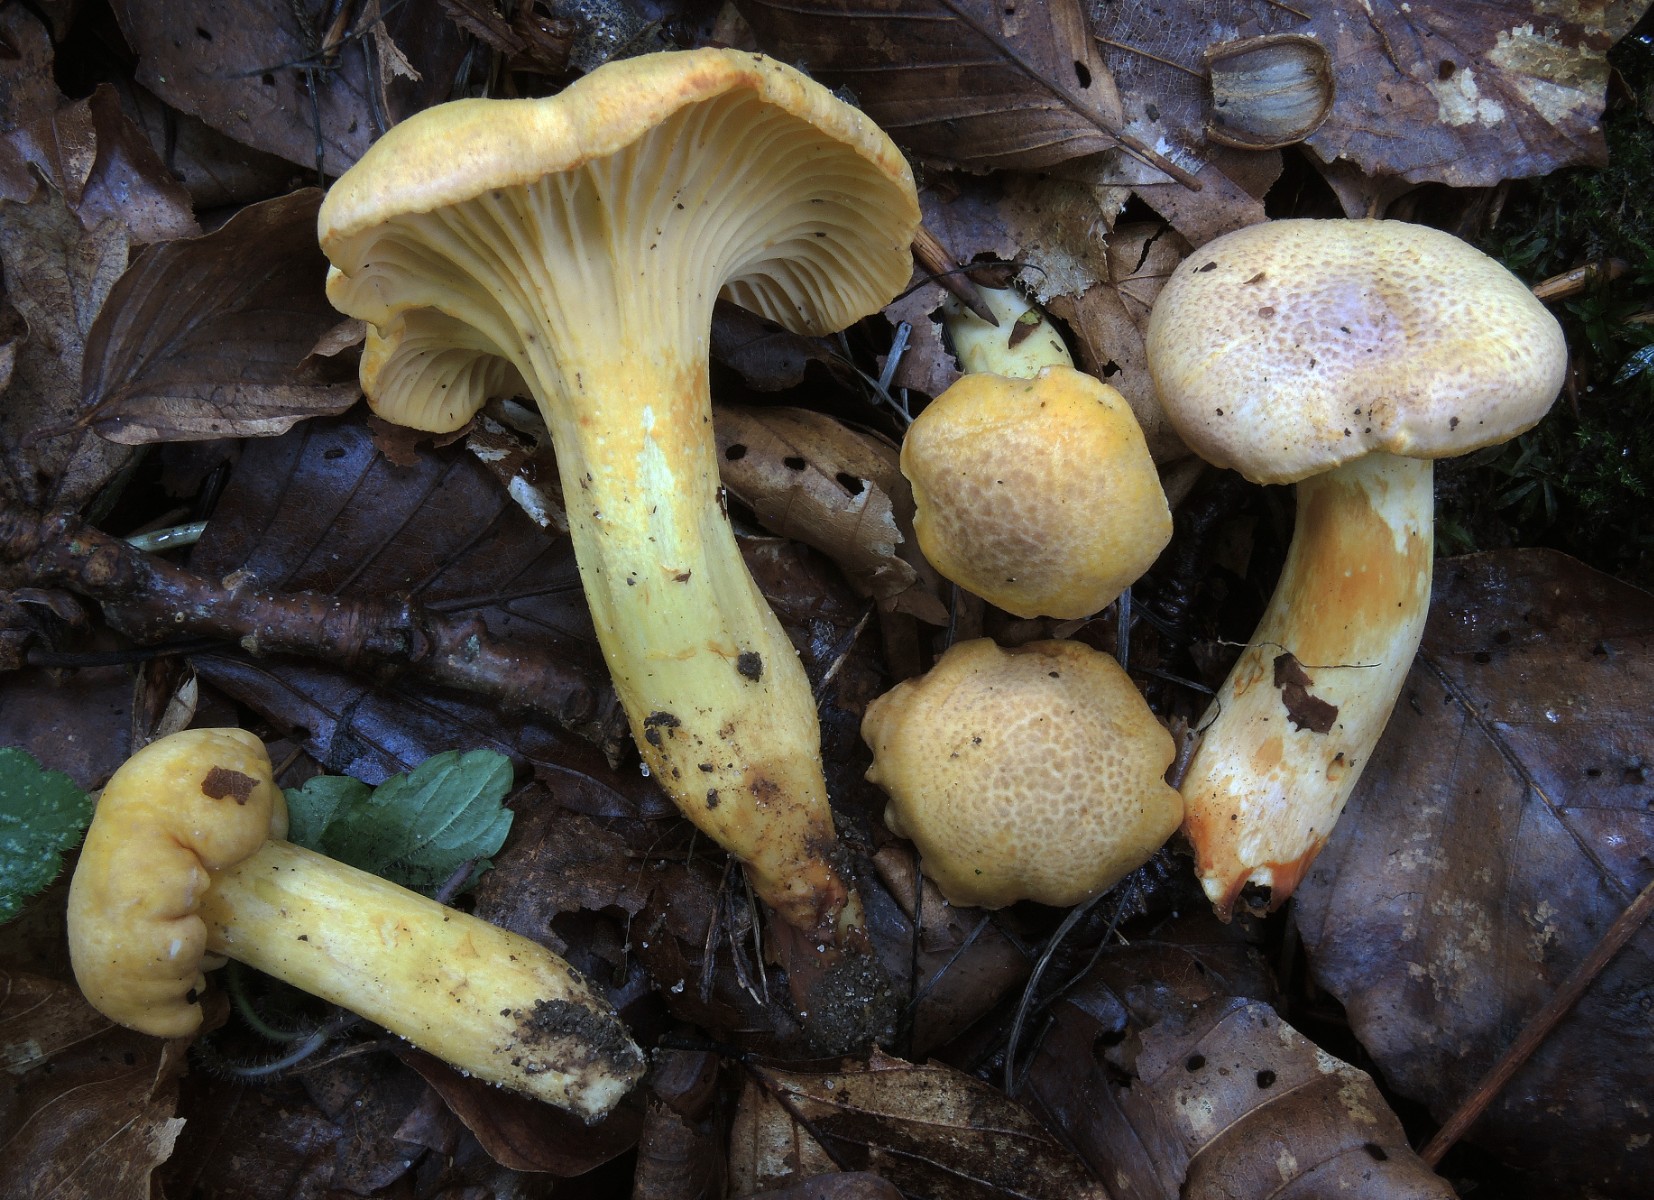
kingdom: Fungi
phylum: Basidiomycota
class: Agaricomycetes
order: Cantharellales
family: Hydnaceae
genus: Cantharellus
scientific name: Cantharellus amethysteus
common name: ametyst-kantarel
